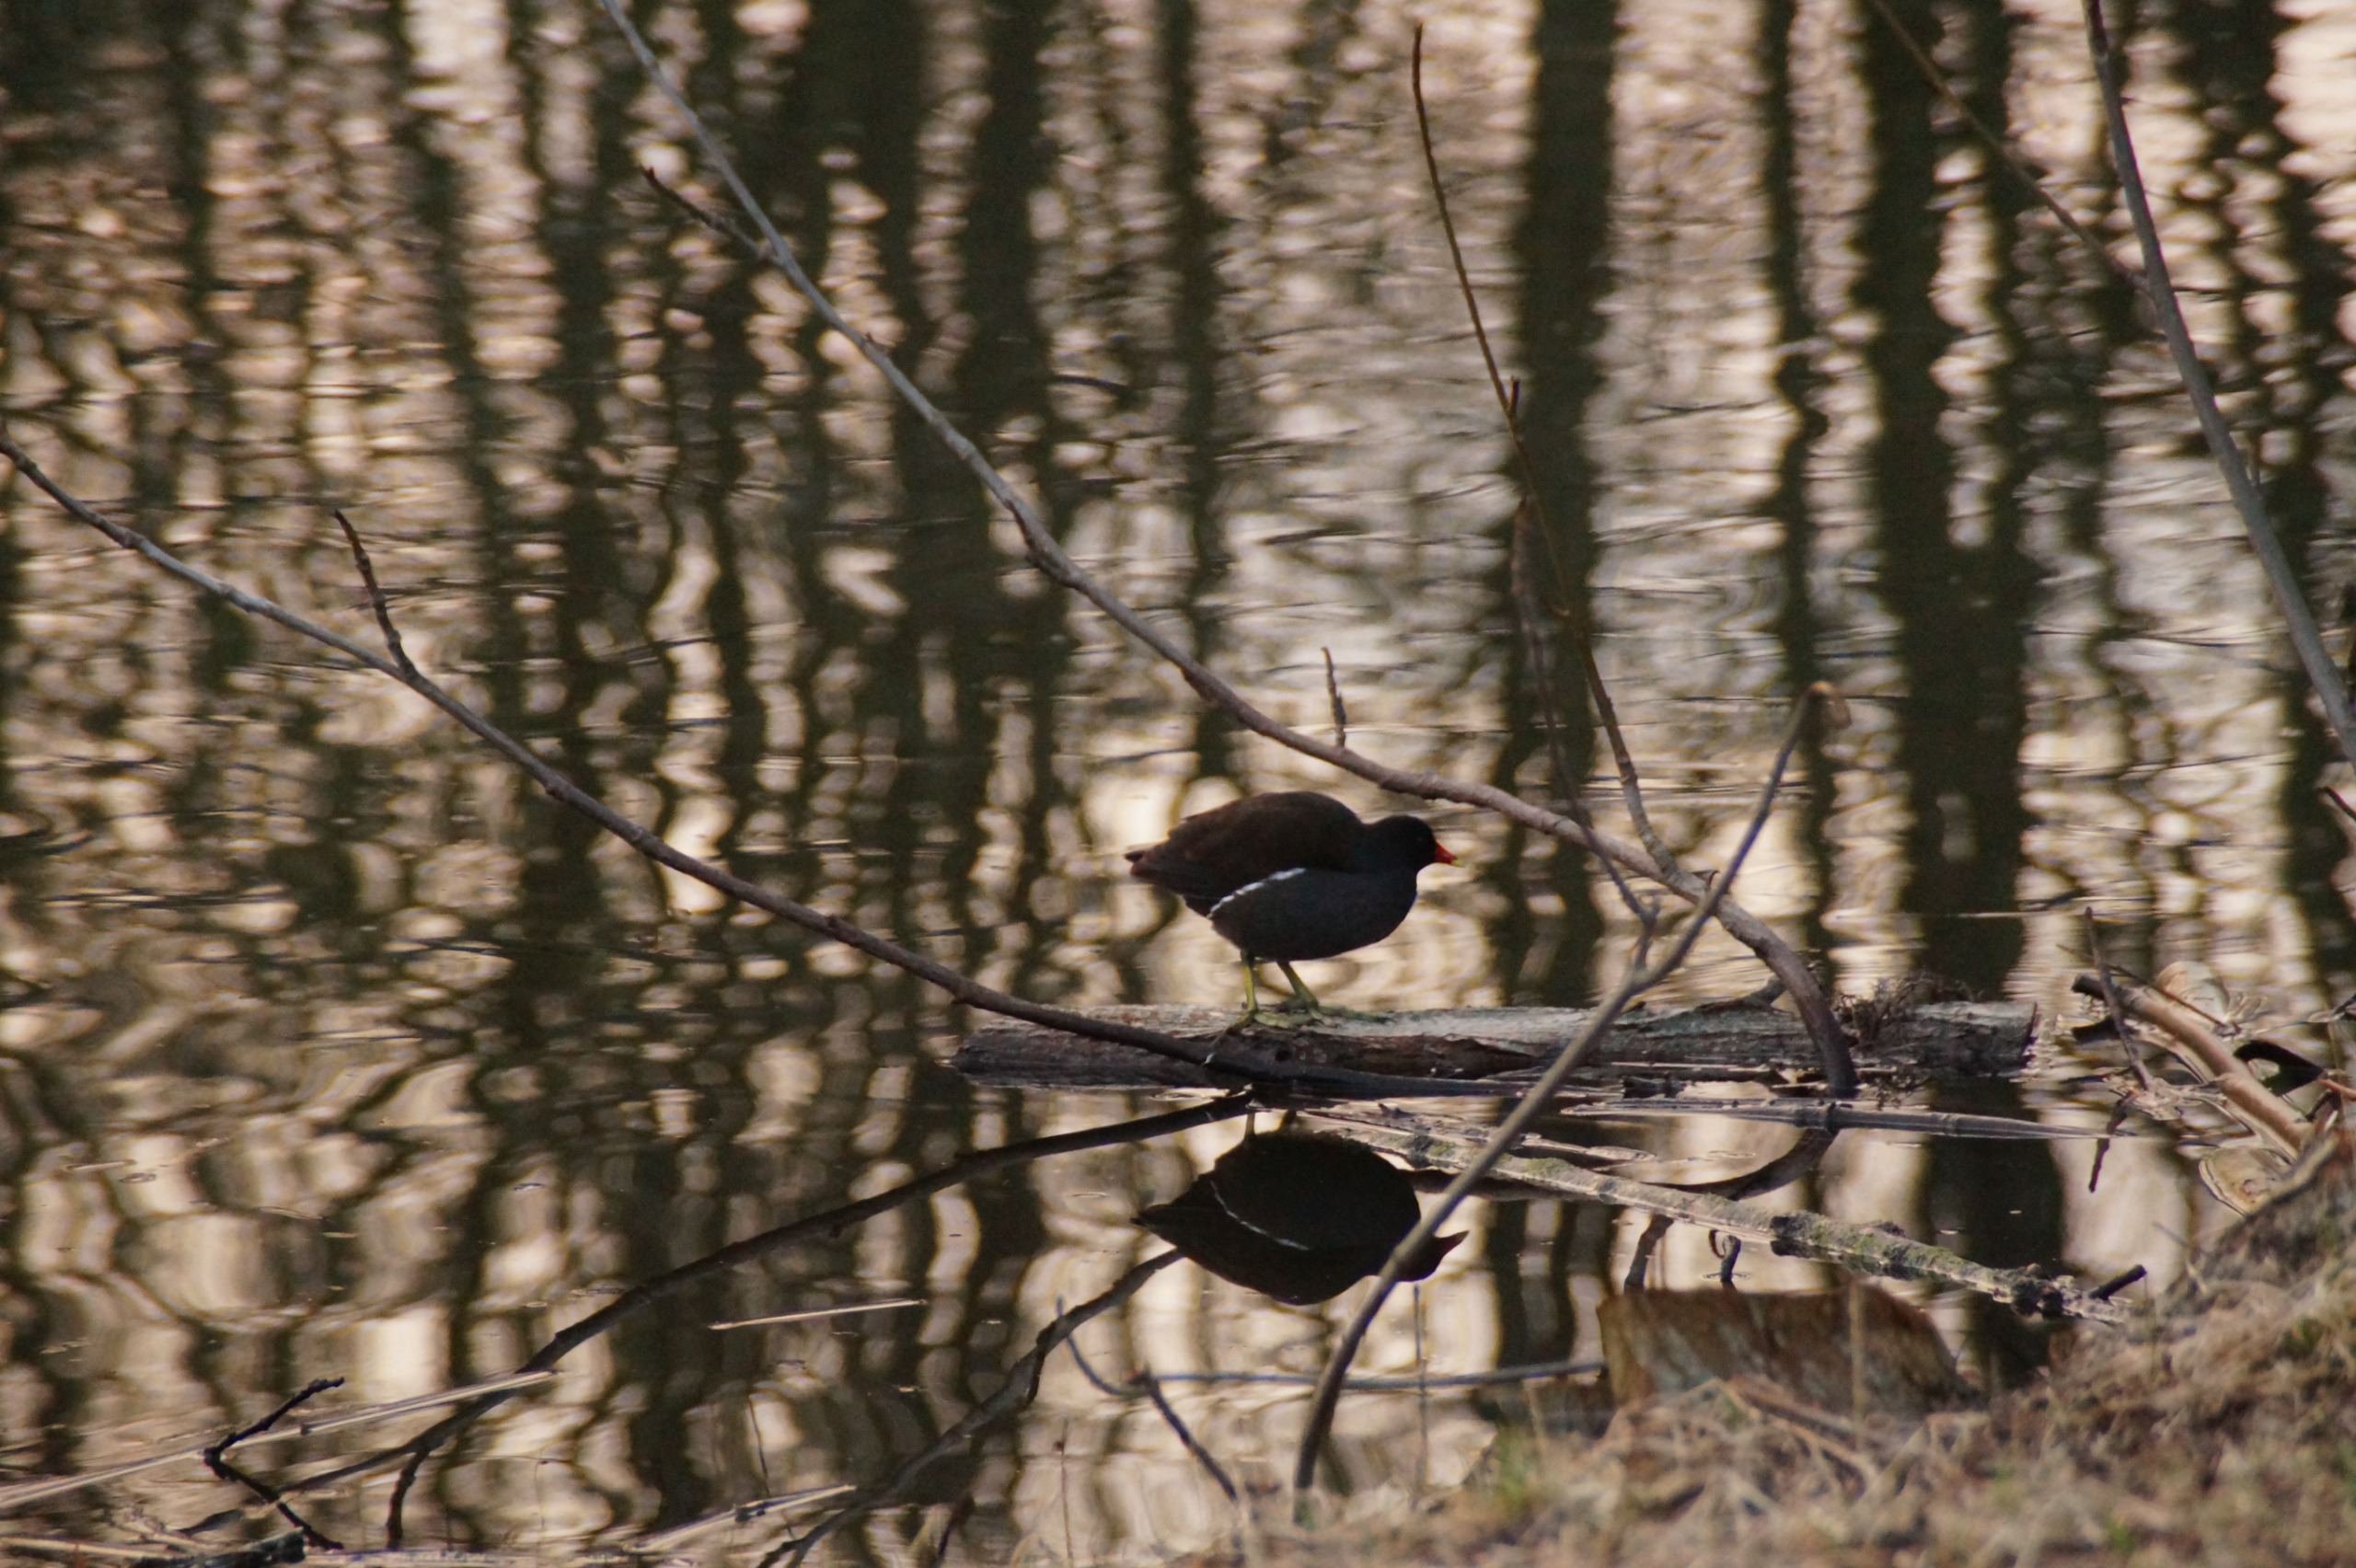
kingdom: Animalia
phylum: Chordata
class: Aves
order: Gruiformes
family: Rallidae
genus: Gallinula
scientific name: Gallinula chloropus
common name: Grønbenet rørhøne
